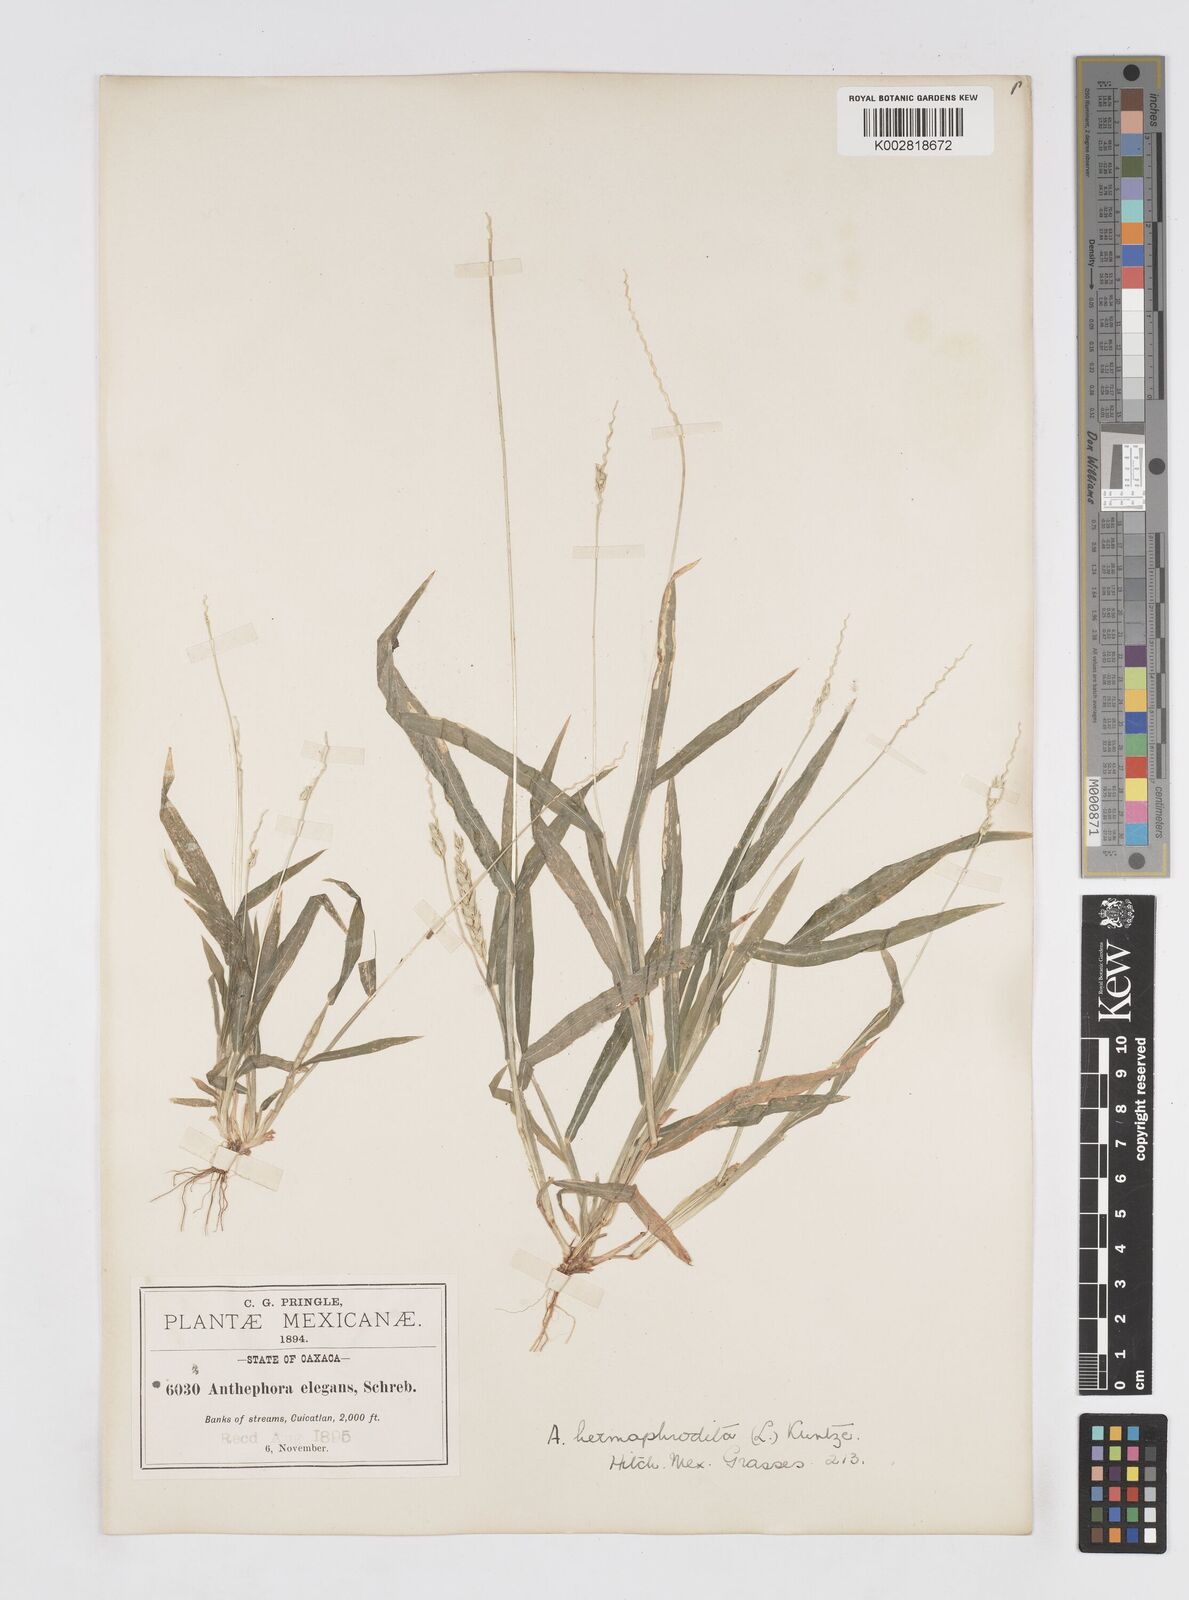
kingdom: Plantae
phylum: Tracheophyta
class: Liliopsida
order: Poales
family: Poaceae
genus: Anthephora
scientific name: Anthephora hermaphrodita
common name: Oldfield grass
